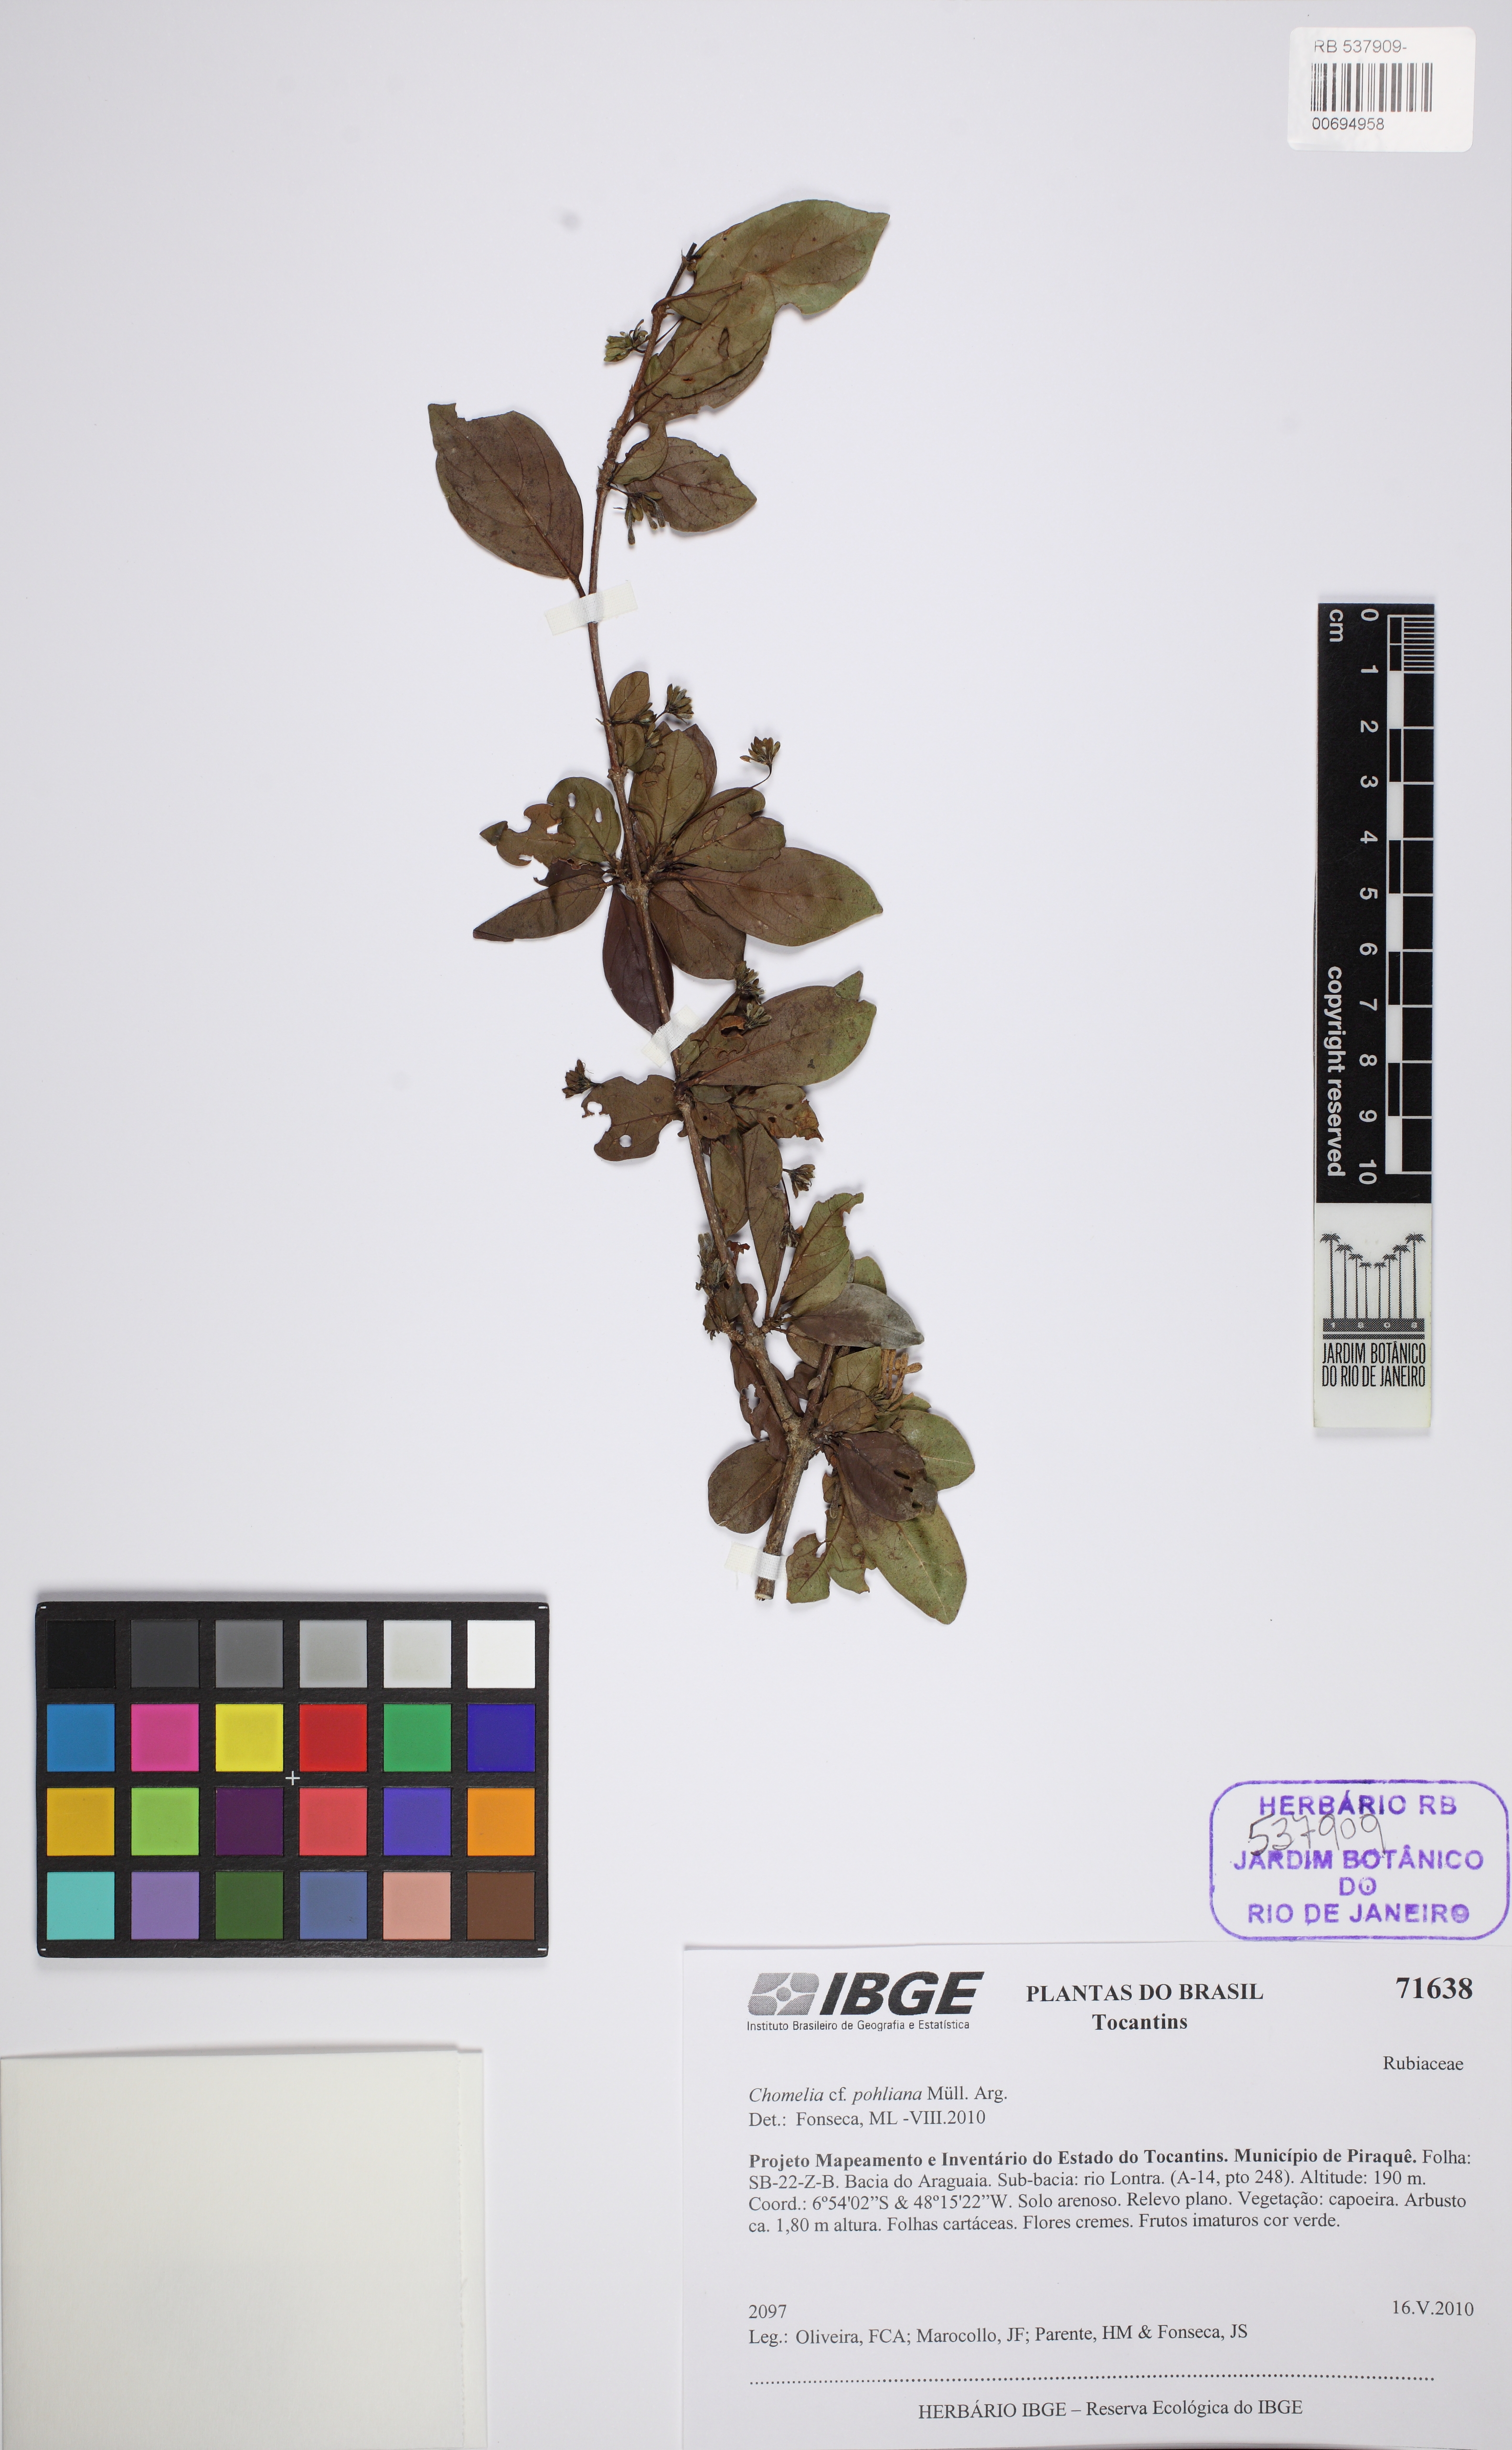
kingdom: Plantae
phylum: Tracheophyta
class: Magnoliopsida
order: Gentianales
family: Rubiaceae
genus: Chomelia
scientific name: Chomelia pohliana
